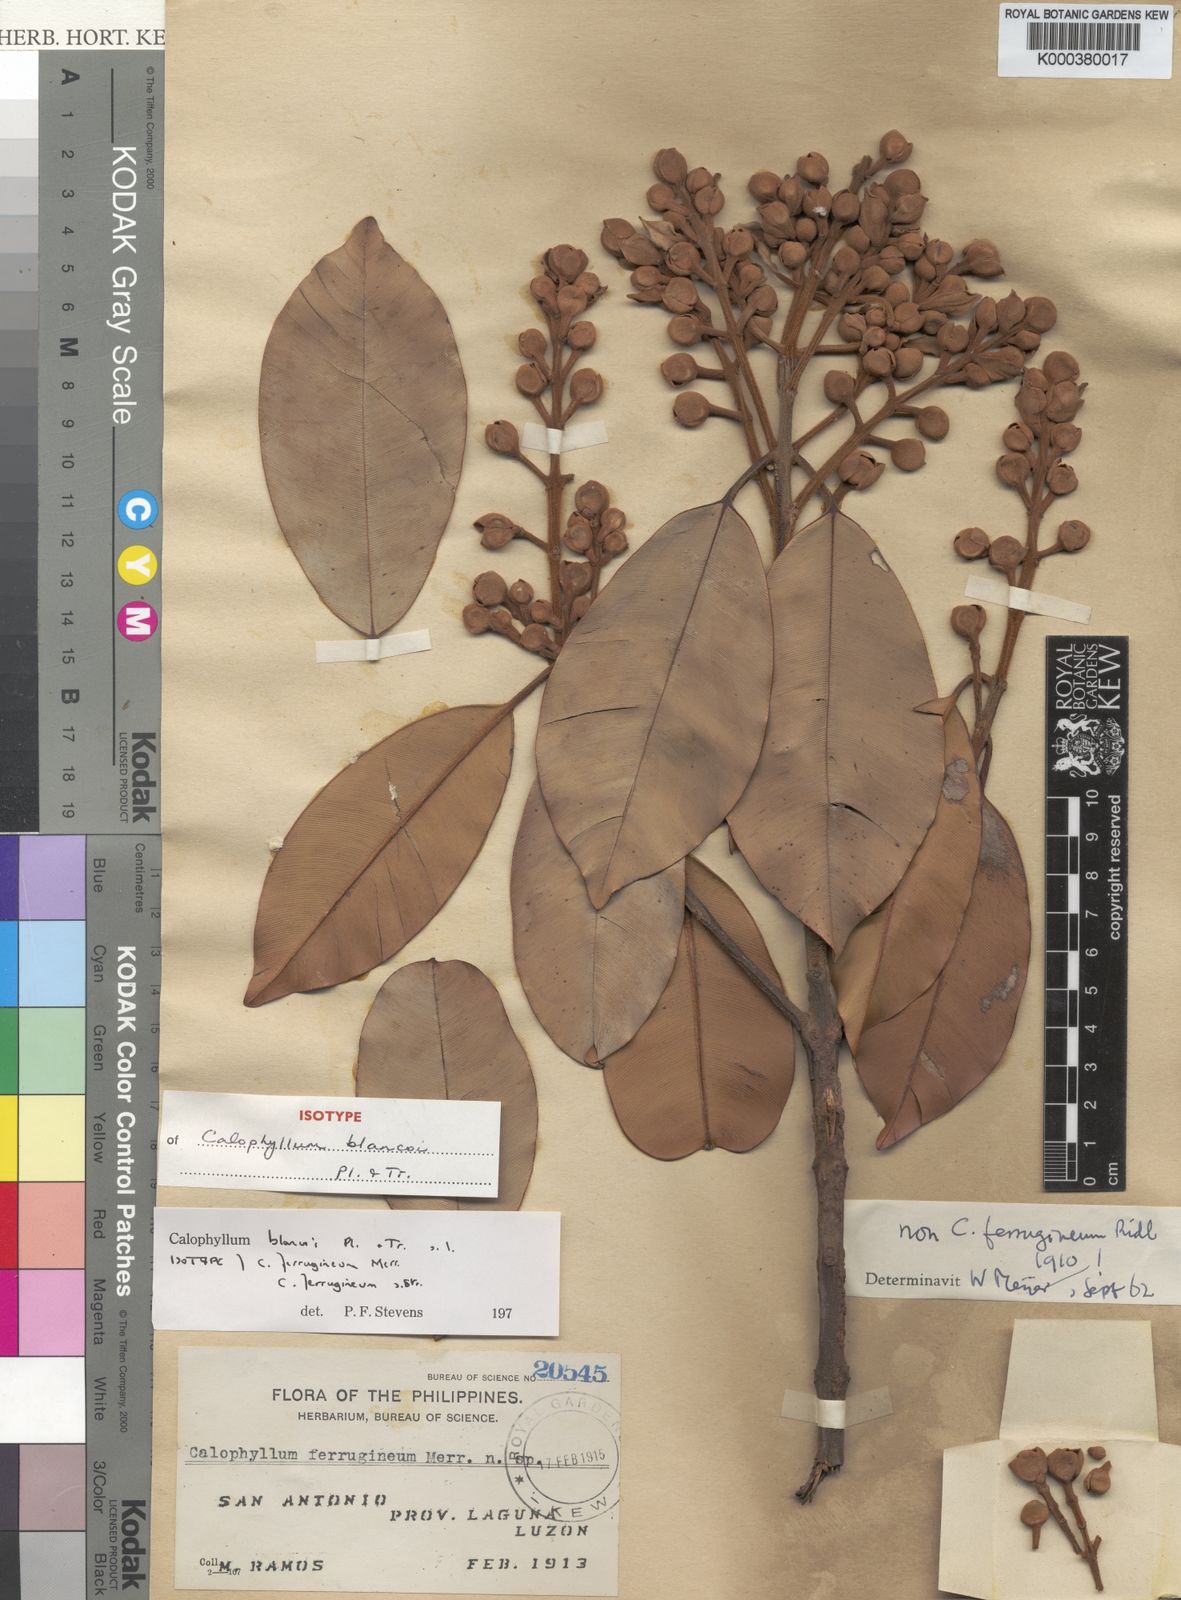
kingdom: Plantae
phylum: Tracheophyta
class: Magnoliopsida
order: Malpighiales
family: Calophyllaceae
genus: Calophyllum
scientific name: Calophyllum blancoi
